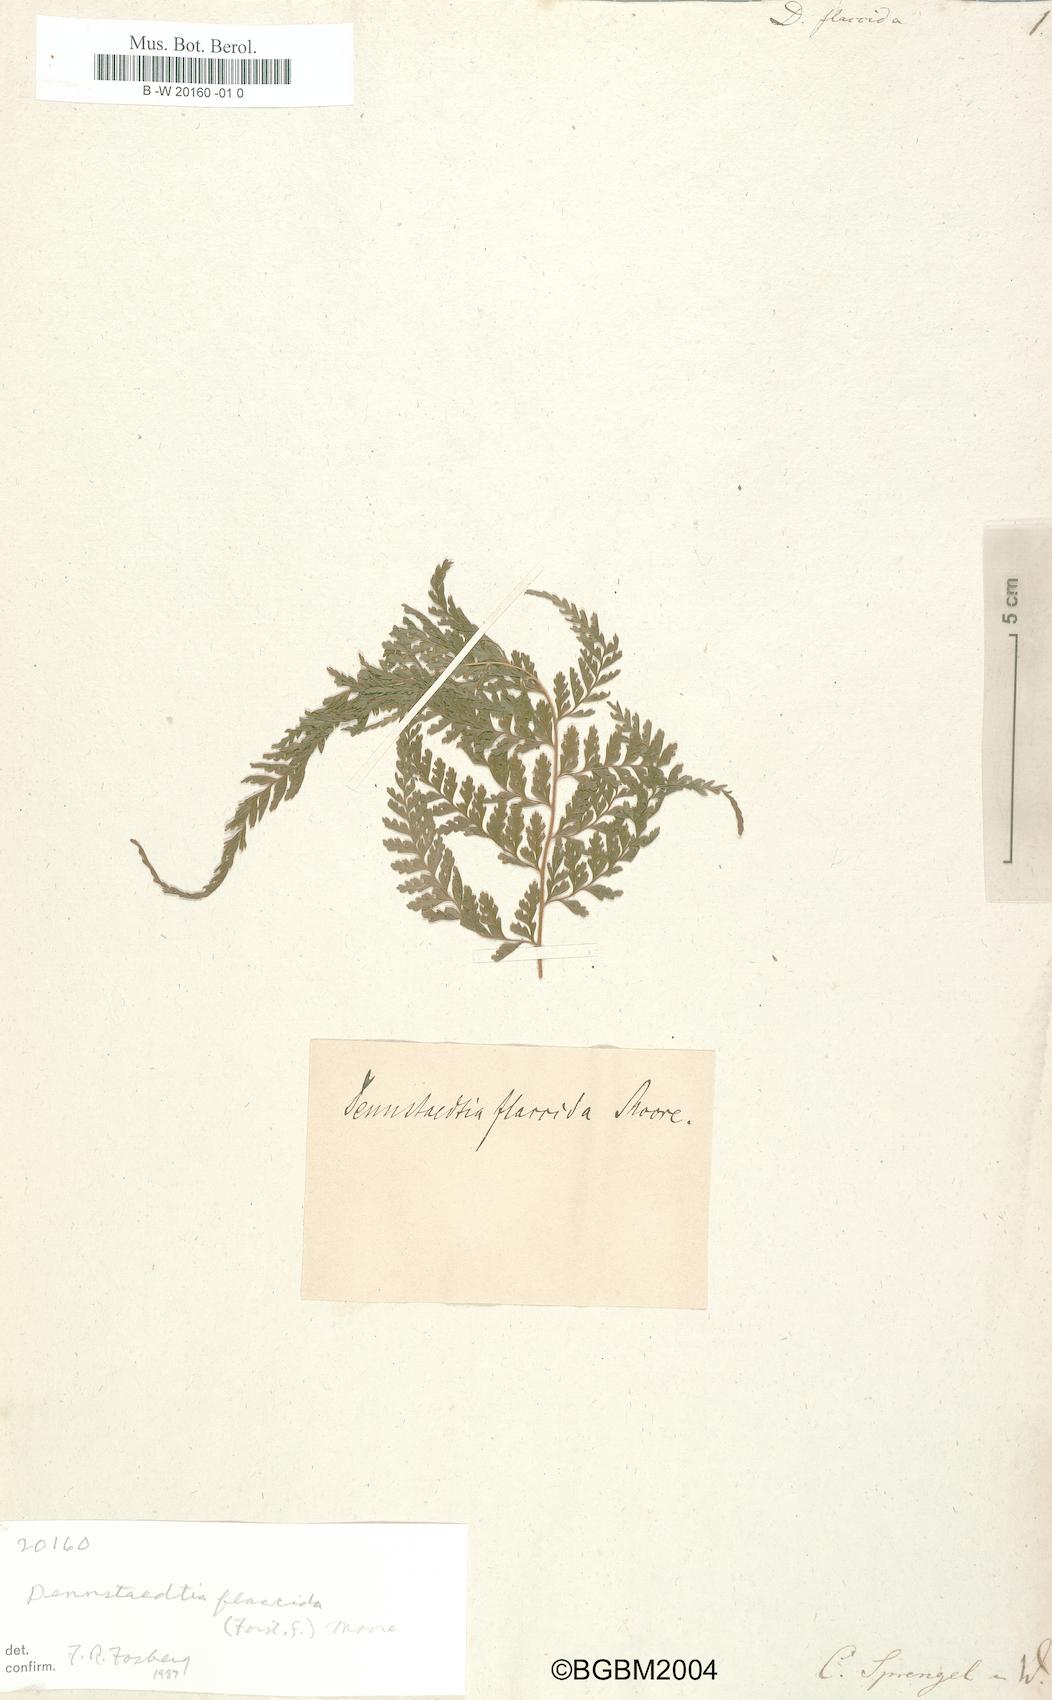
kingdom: Plantae
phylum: Tracheophyta
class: Polypodiopsida
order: Cyatheales
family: Dicksoniaceae
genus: Dicksonia
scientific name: Dicksonia flaccida
